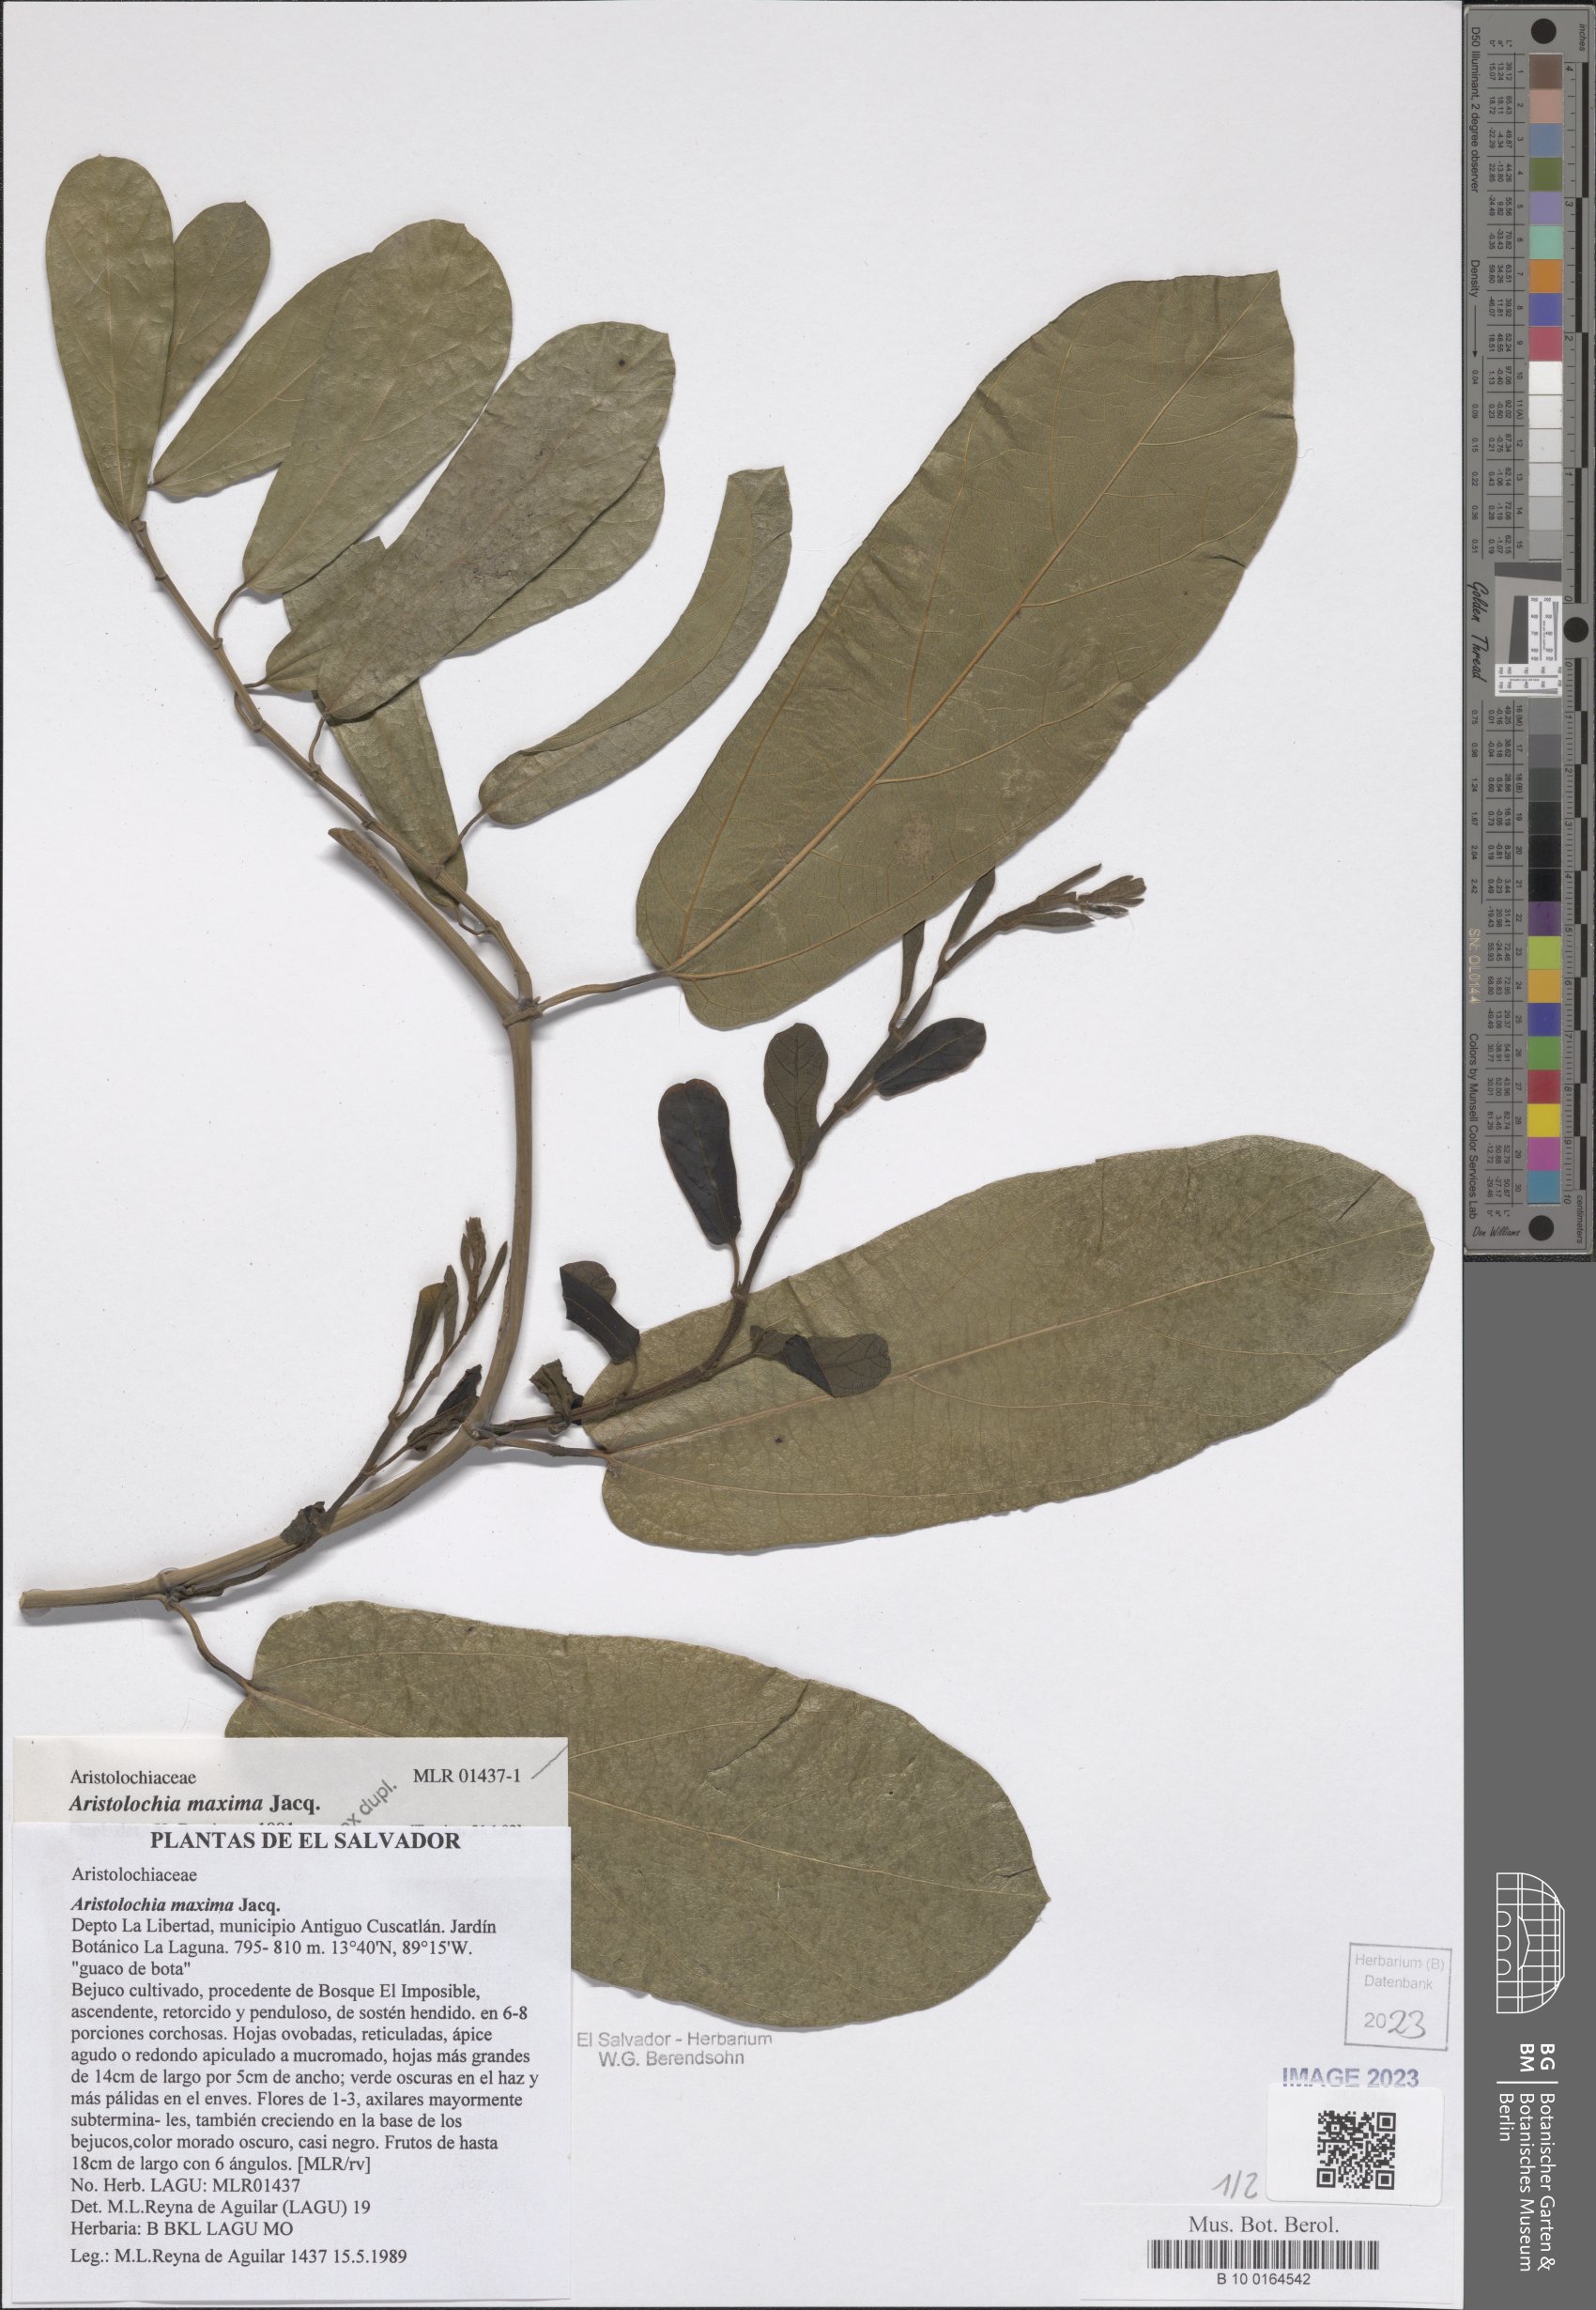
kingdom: Plantae
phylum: Tracheophyta
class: Magnoliopsida
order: Piperales
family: Aristolochiaceae
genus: Aristolochia
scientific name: Aristolochia maxima
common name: Florida dutchman's pipe
